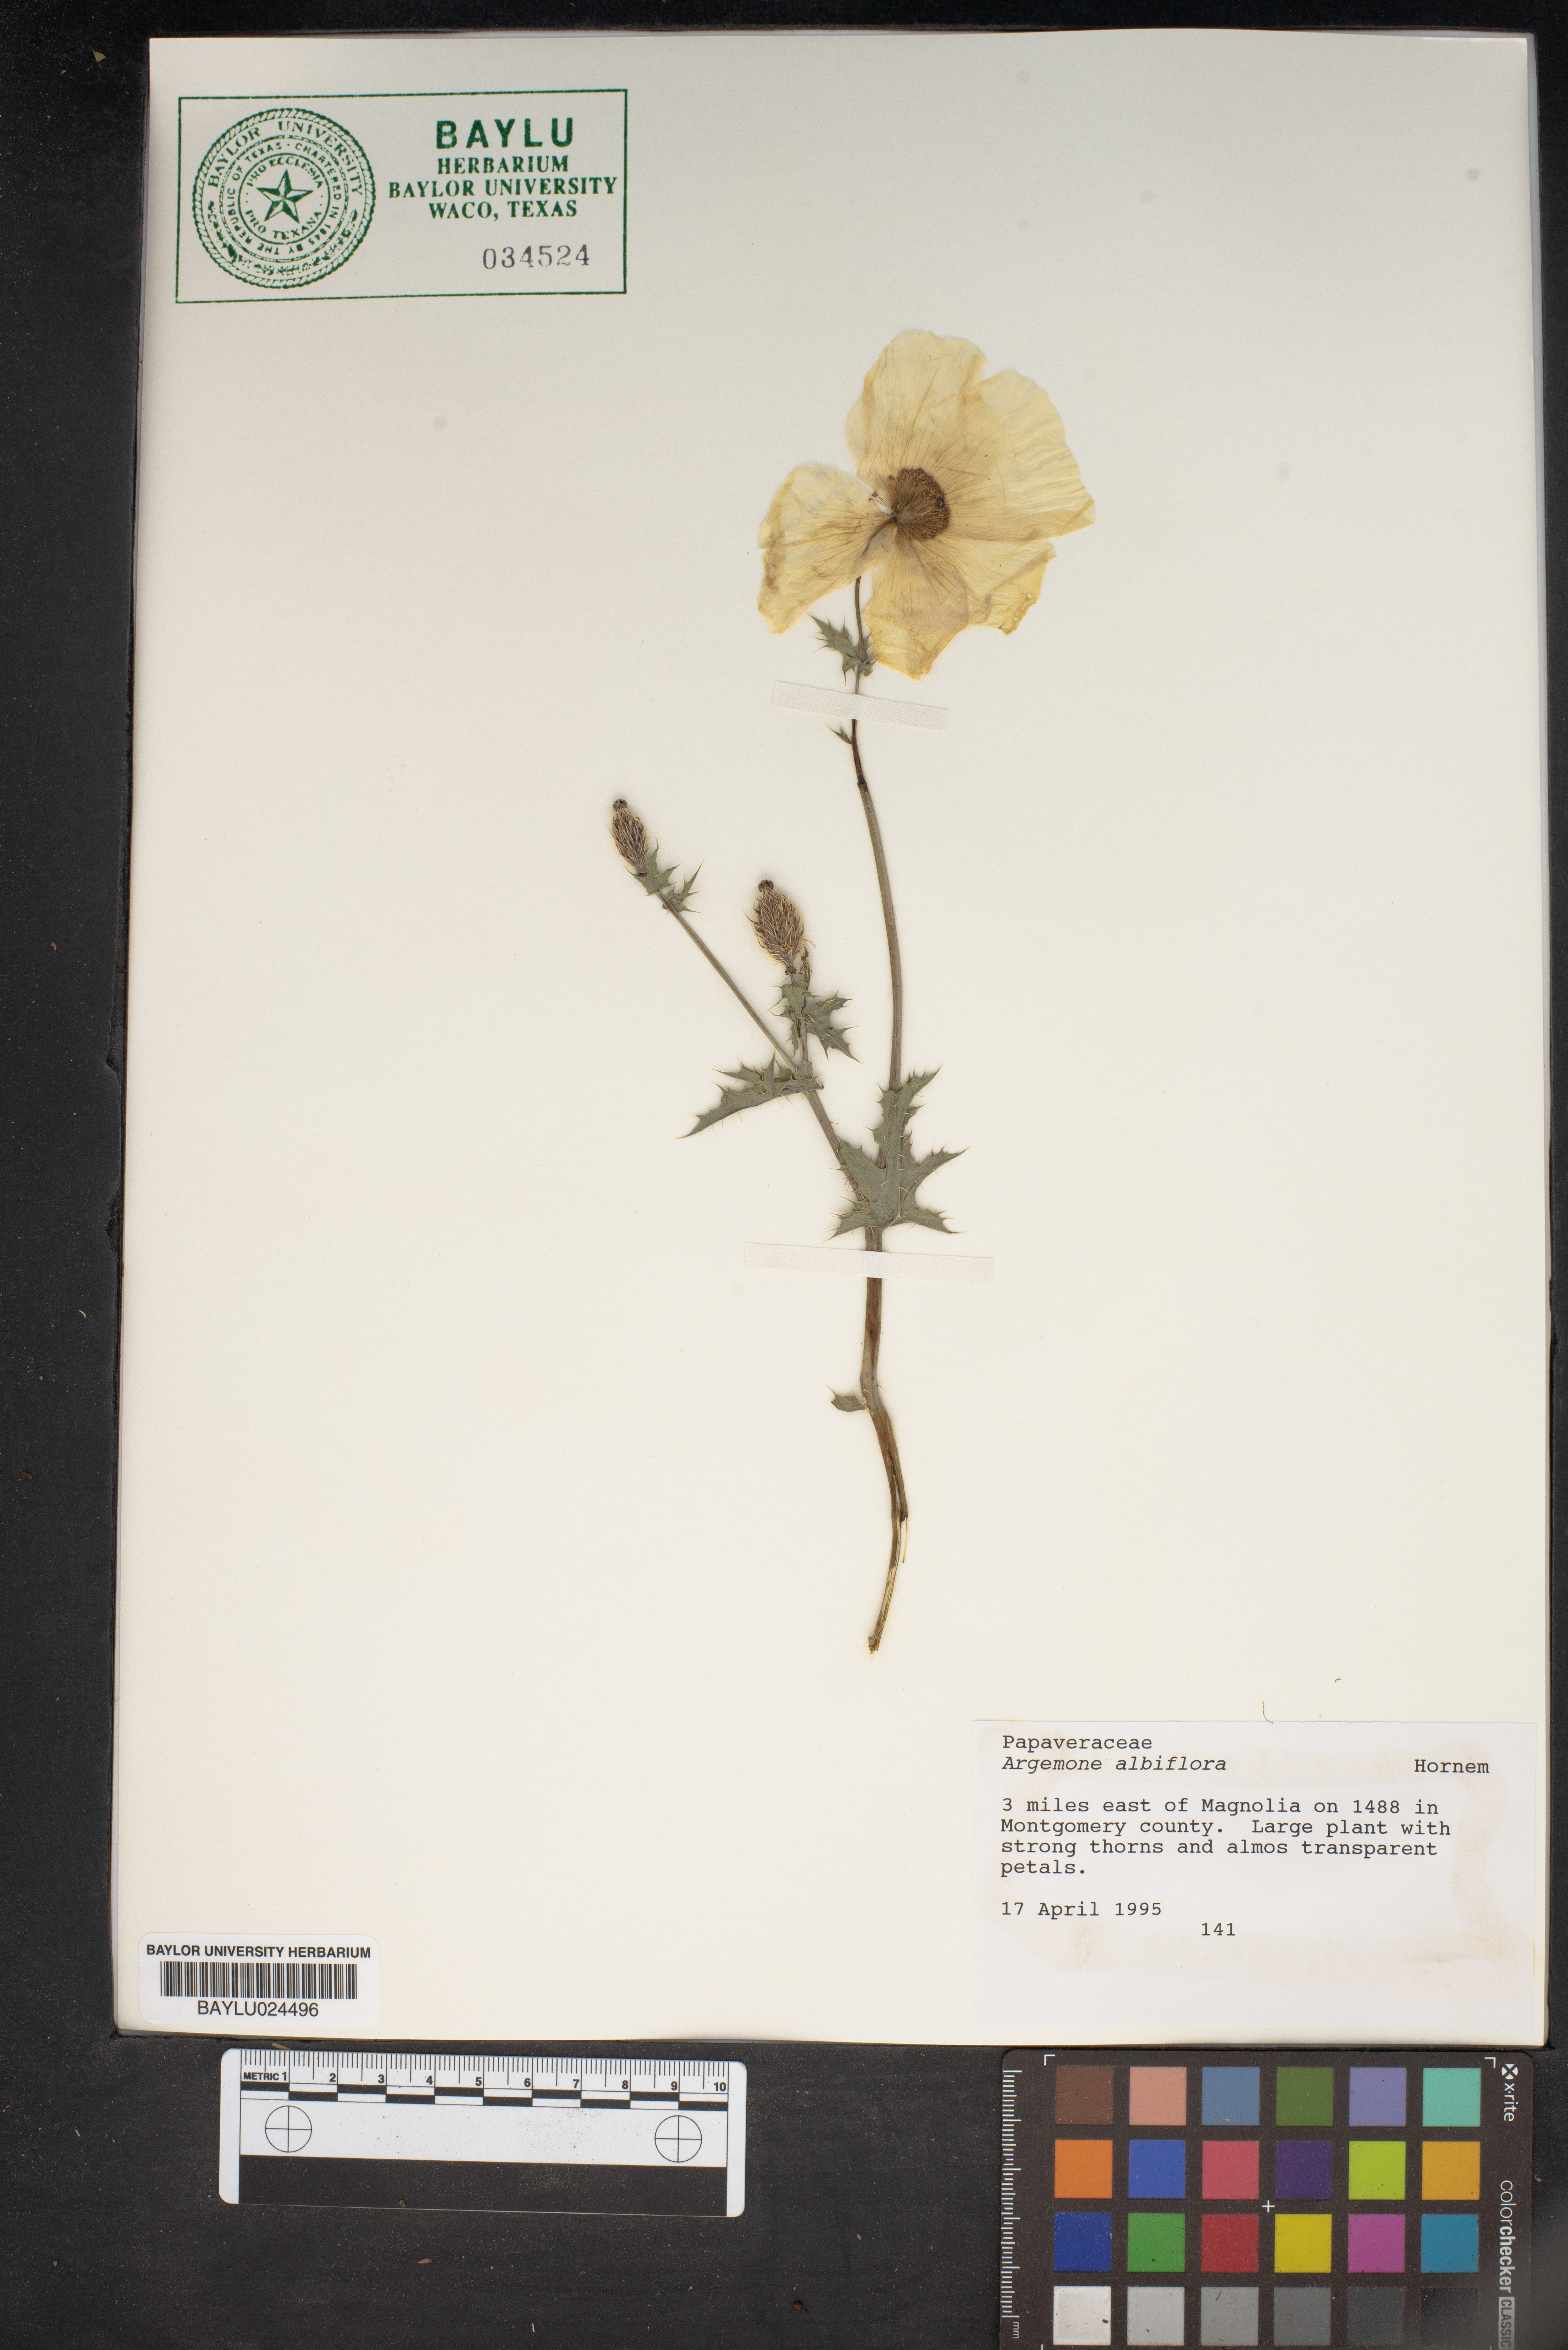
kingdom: Plantae
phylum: Tracheophyta
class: Magnoliopsida
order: Ranunculales
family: Papaveraceae
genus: Argemone
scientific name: Argemone albiflora
